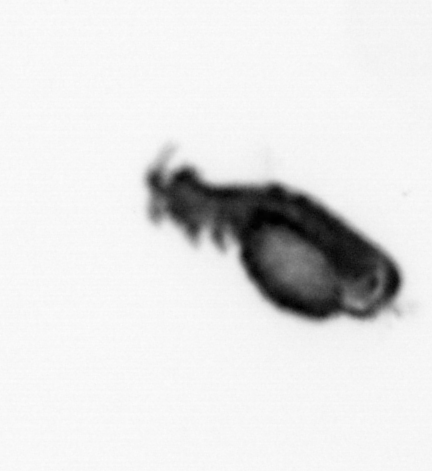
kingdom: Animalia
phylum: Annelida
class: Polychaeta
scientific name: Polychaeta
